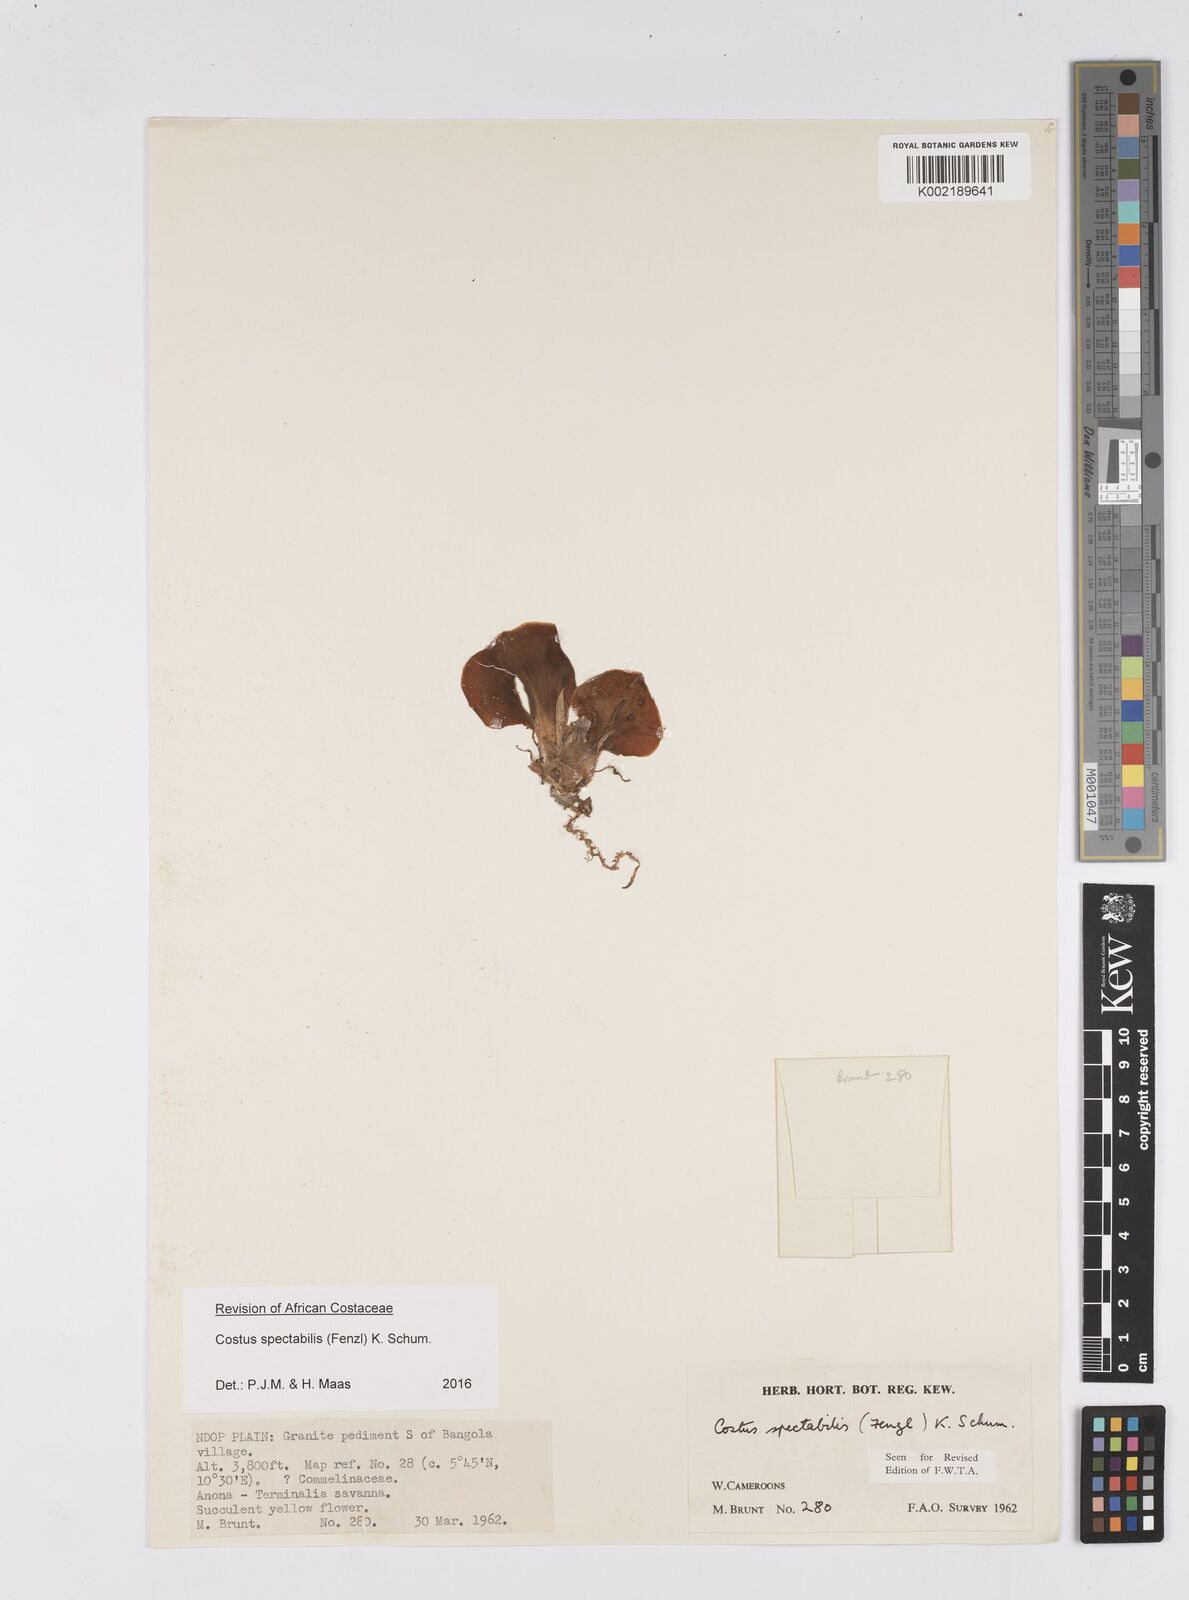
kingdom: Plantae
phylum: Tracheophyta
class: Liliopsida
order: Zingiberales
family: Costaceae
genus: Costus
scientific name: Costus spectabilis
